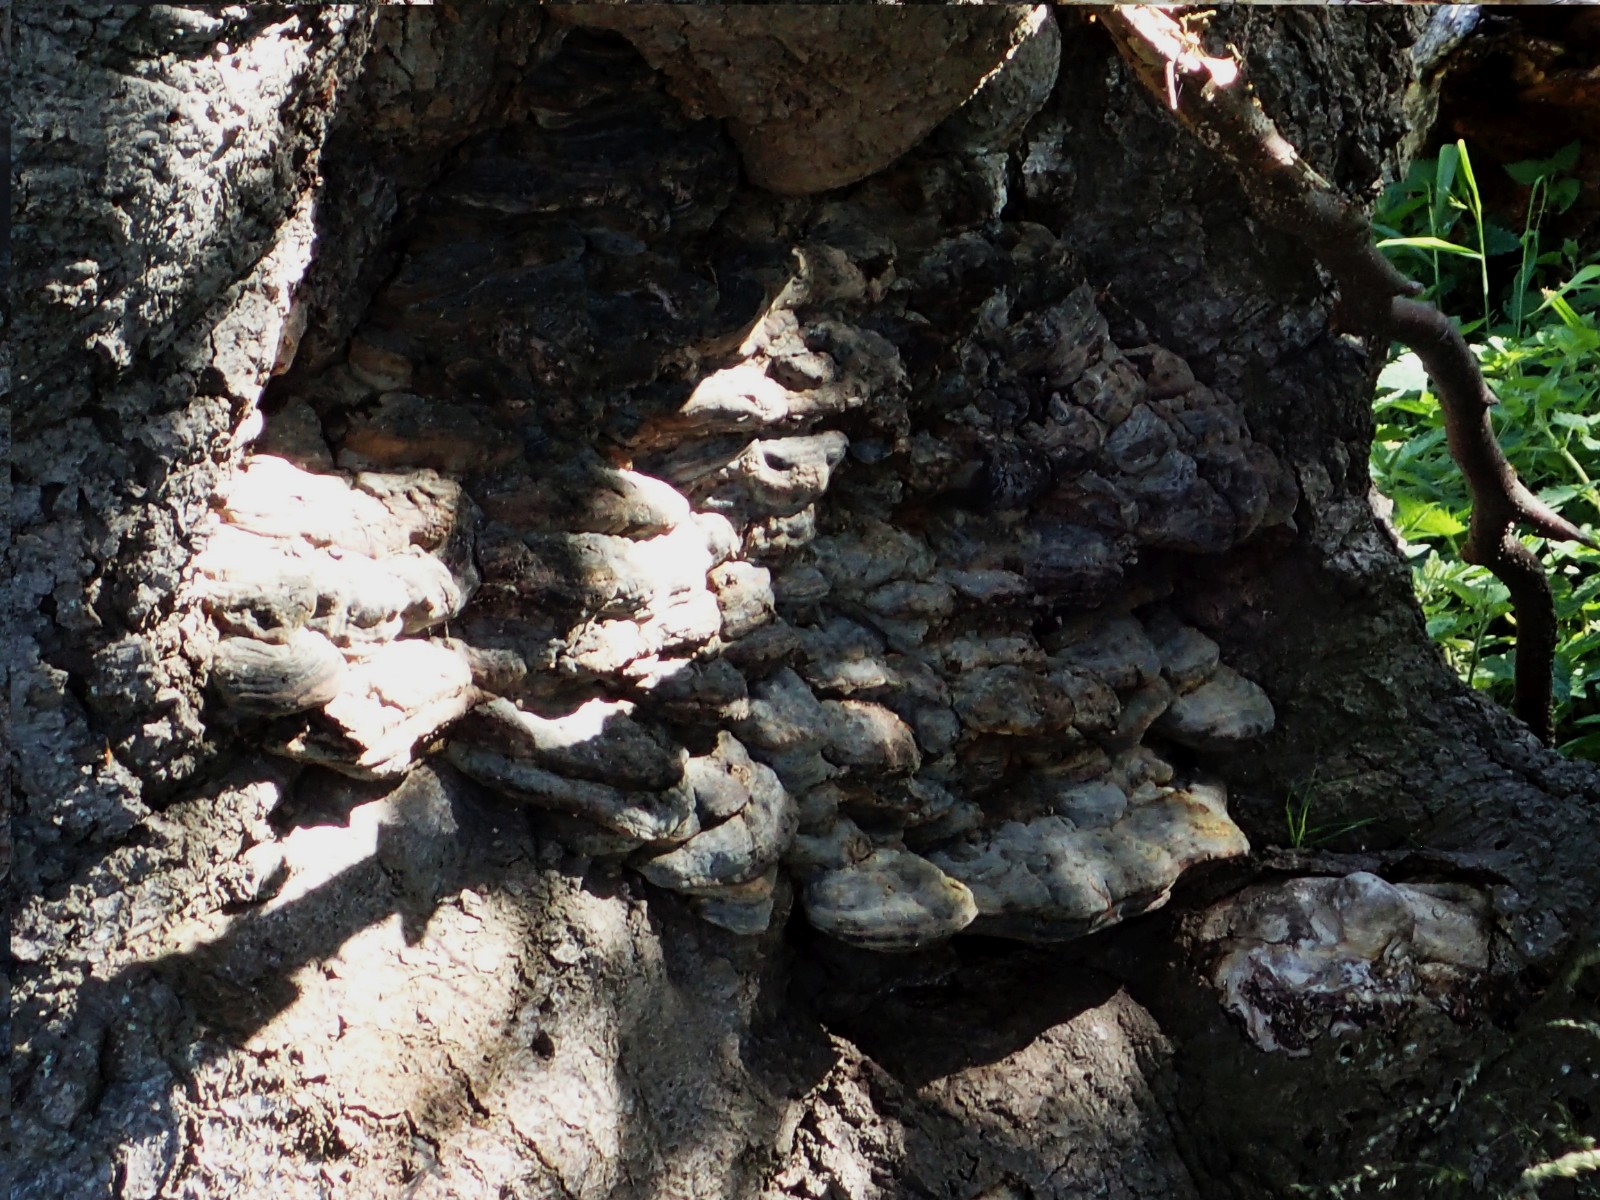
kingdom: Fungi
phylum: Basidiomycota
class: Agaricomycetes
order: Polyporales
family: Polyporaceae
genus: Ganoderma
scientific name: Ganoderma pfeifferi
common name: kobberrød lakporesvamp
